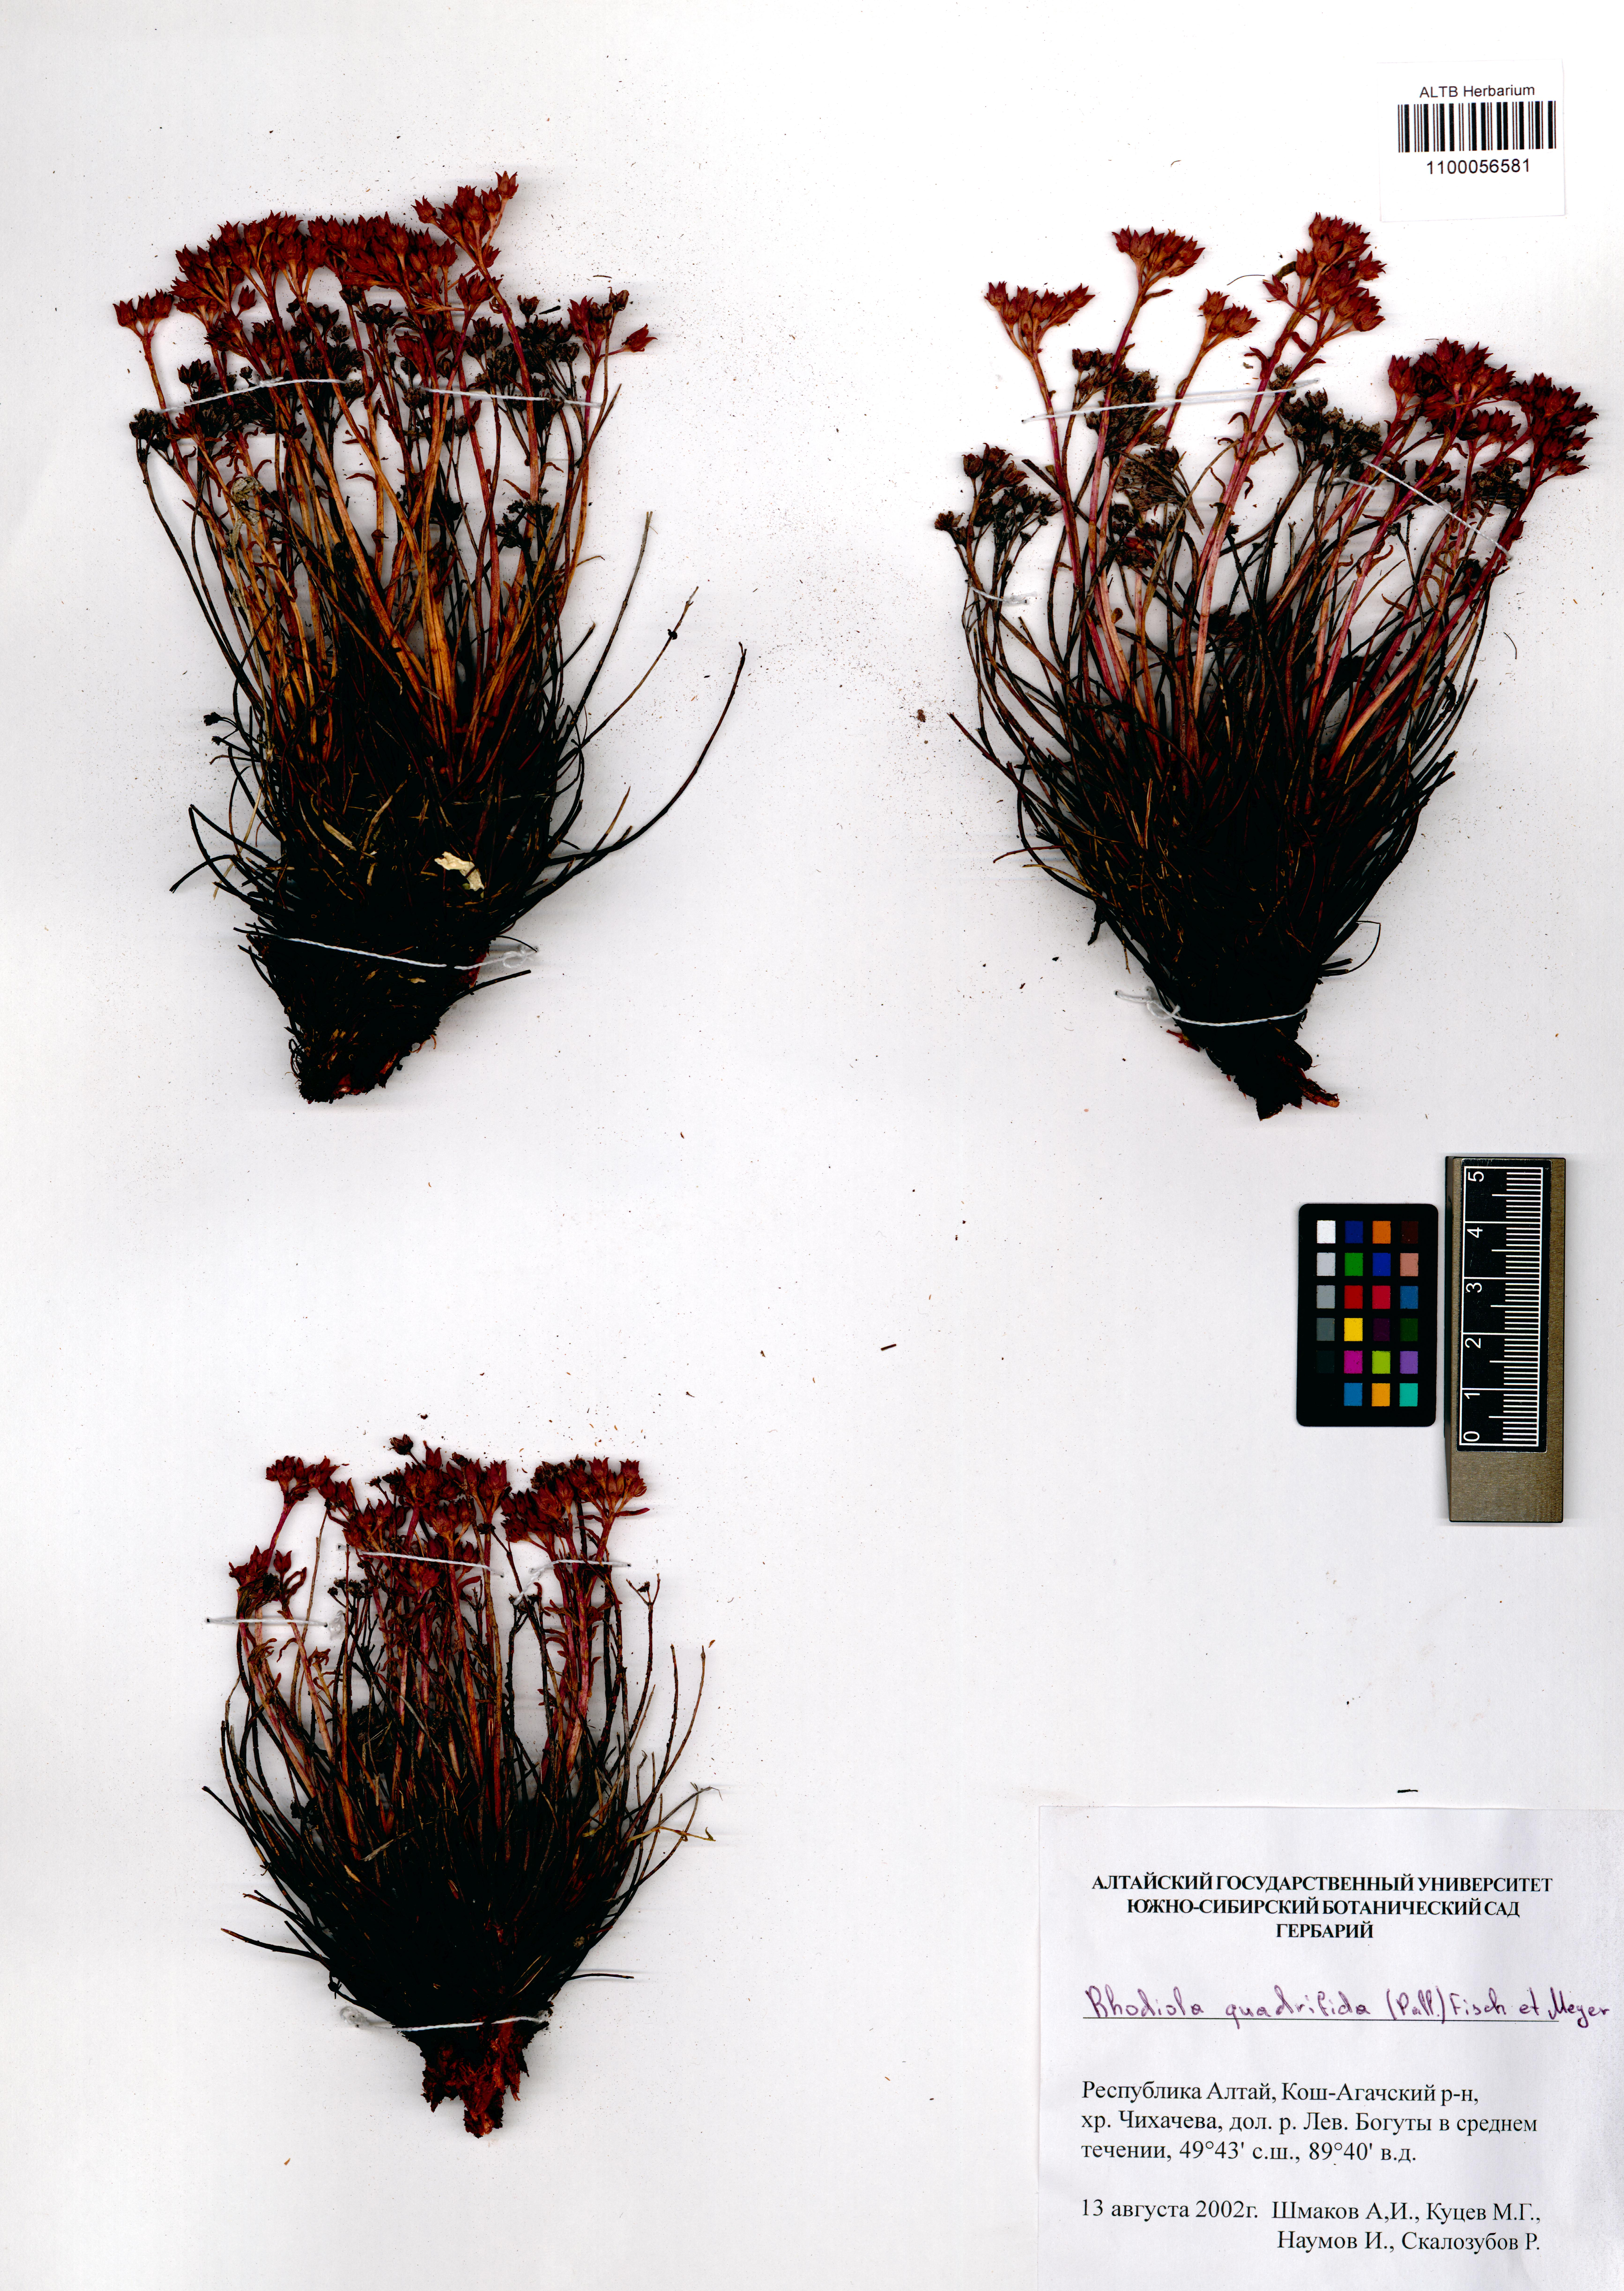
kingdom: Plantae
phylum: Tracheophyta
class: Magnoliopsida
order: Saxifragales
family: Crassulaceae
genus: Rhodiola
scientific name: Rhodiola quadrifida
